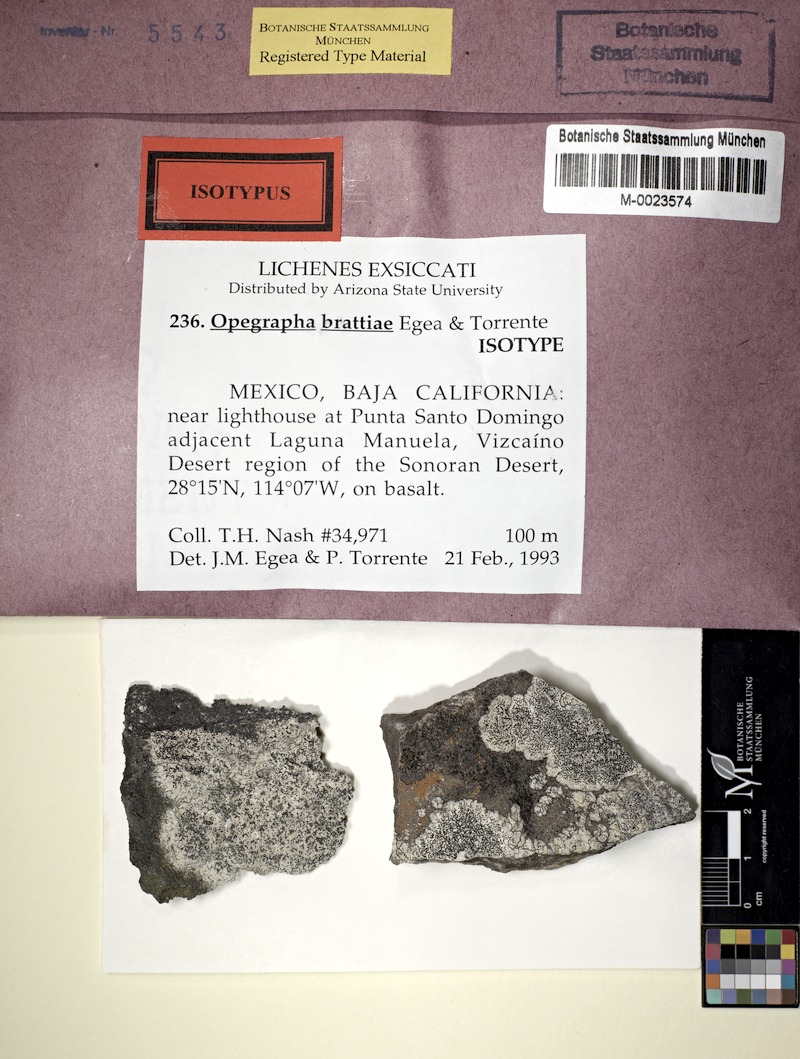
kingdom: Fungi
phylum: Ascomycota
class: Arthoniomycetes
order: Arthoniales
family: Lecanographaceae
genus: Lecanographa
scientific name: Lecanographa brattiae
